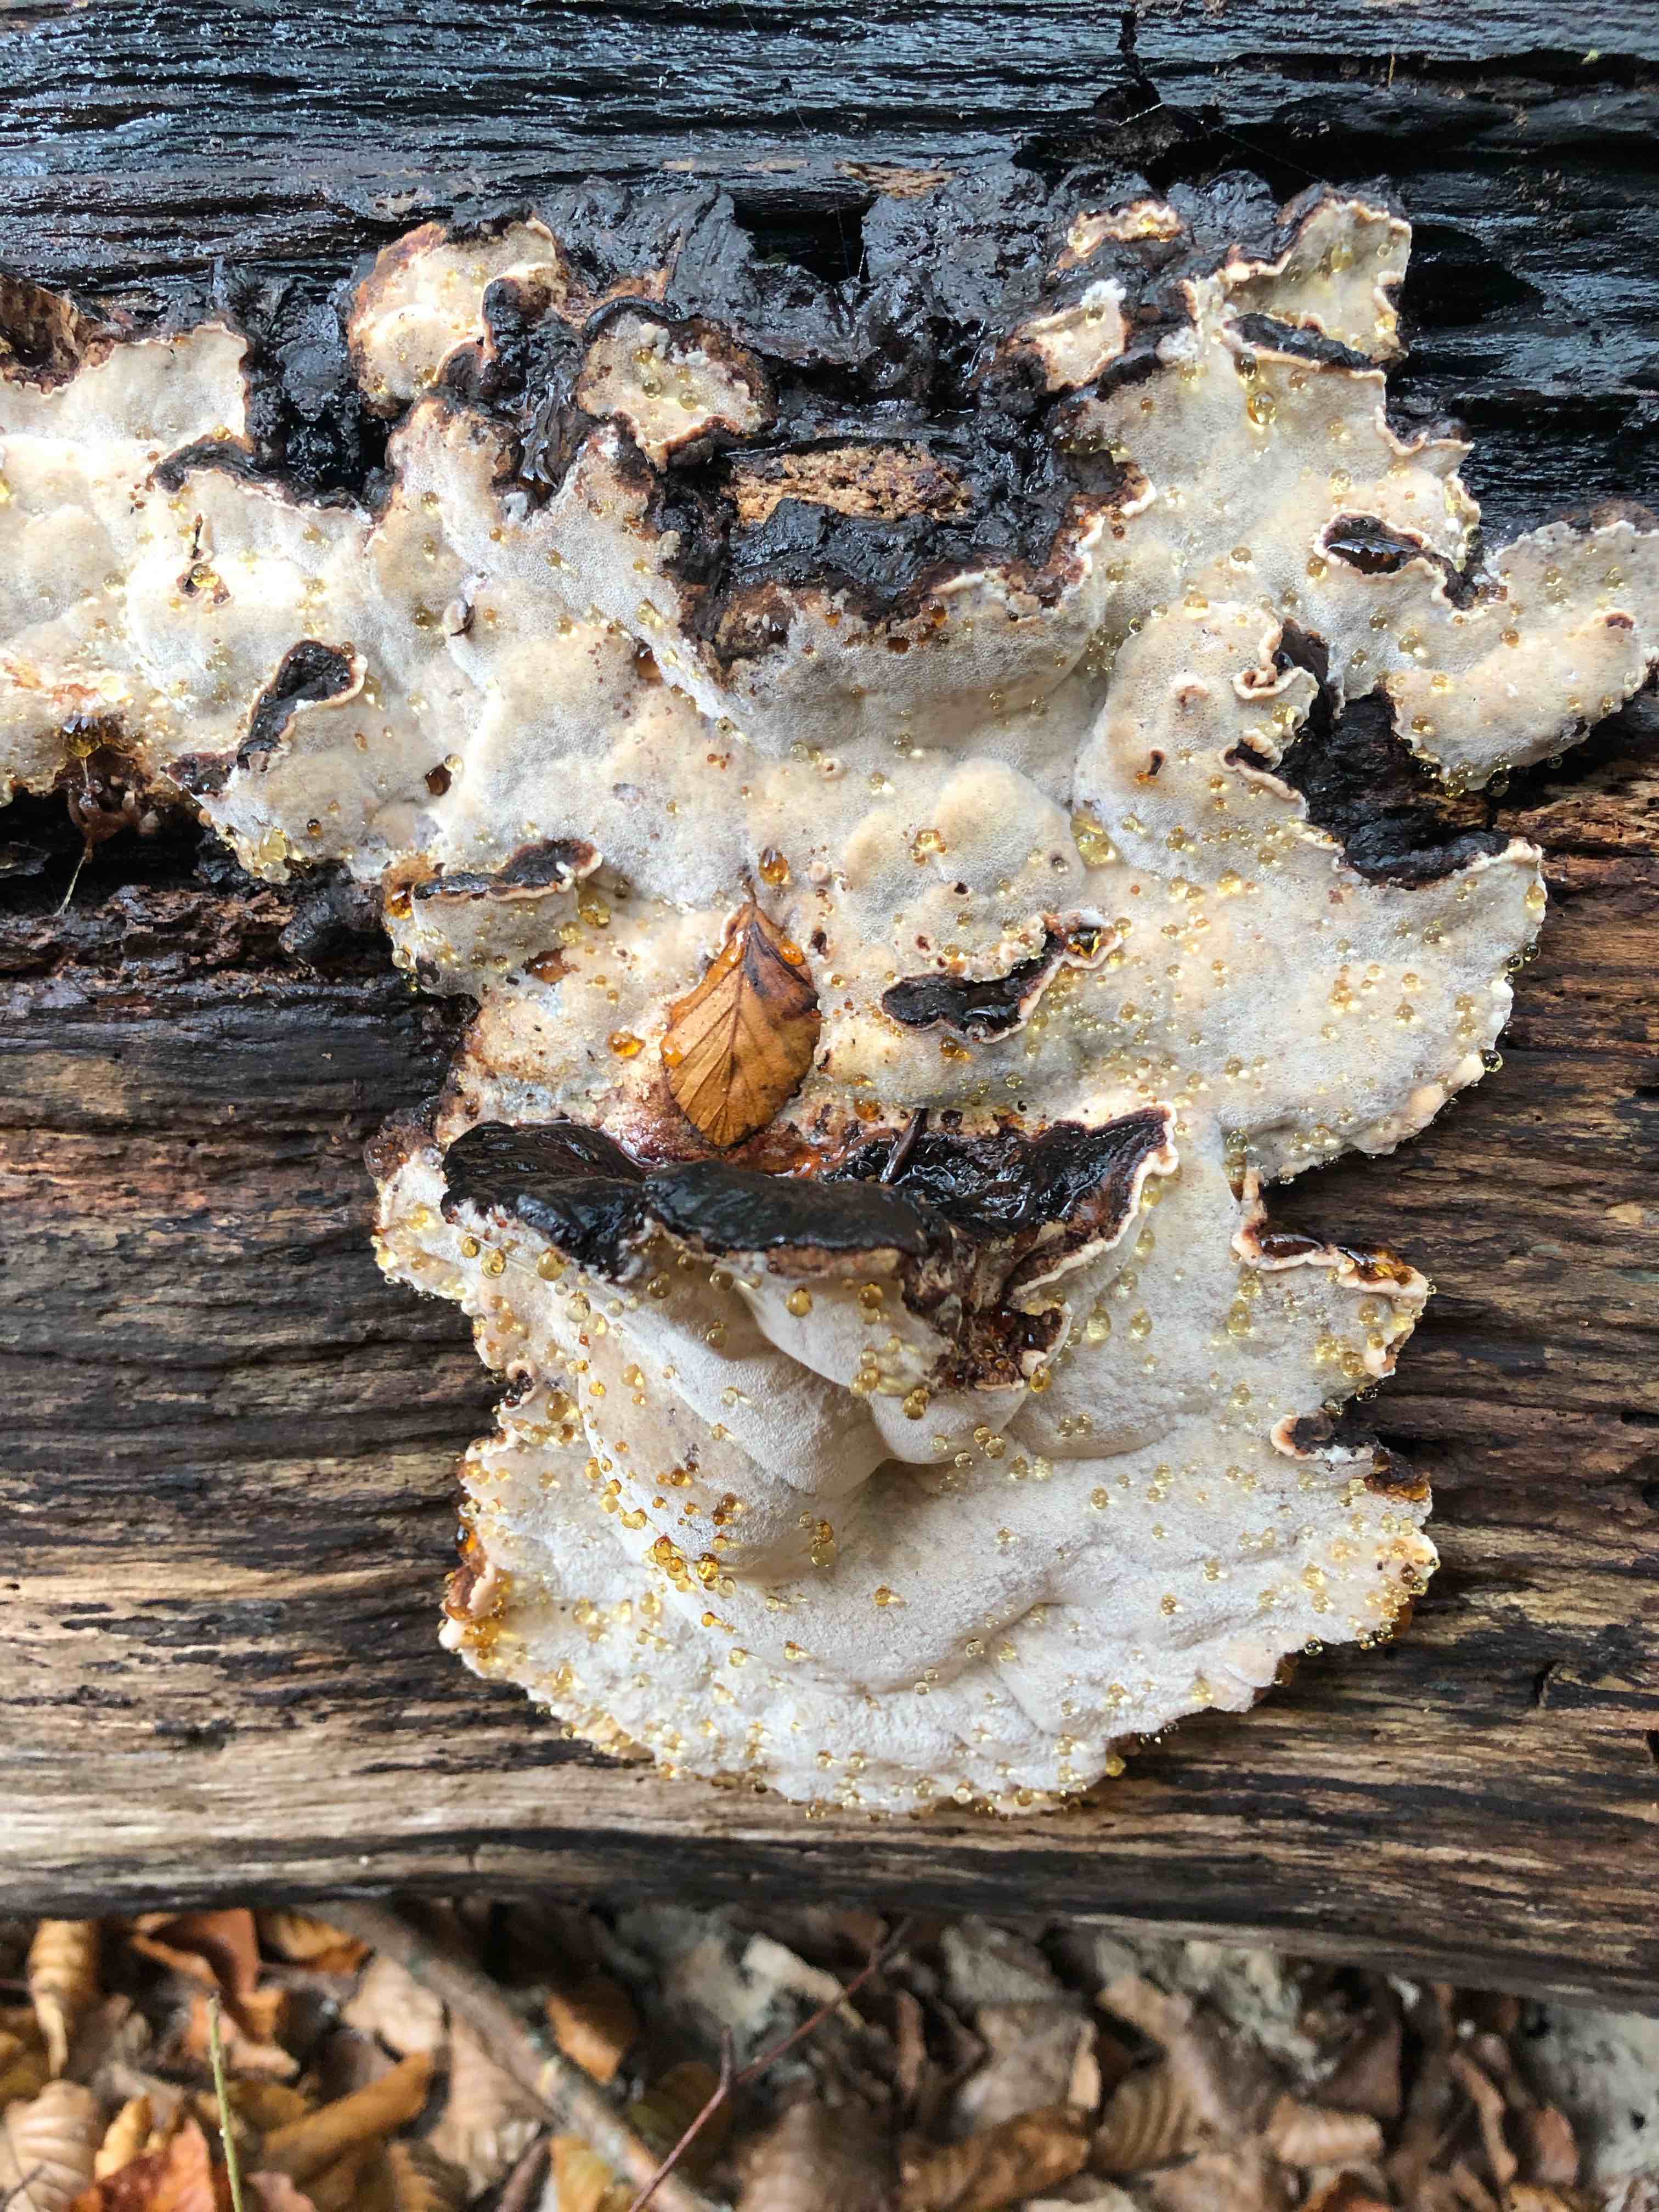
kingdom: Fungi
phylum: Basidiomycota
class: Agaricomycetes
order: Polyporales
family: Ischnodermataceae
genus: Ischnoderma
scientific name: Ischnoderma resinosum
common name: løv-tjæreporesvamp
